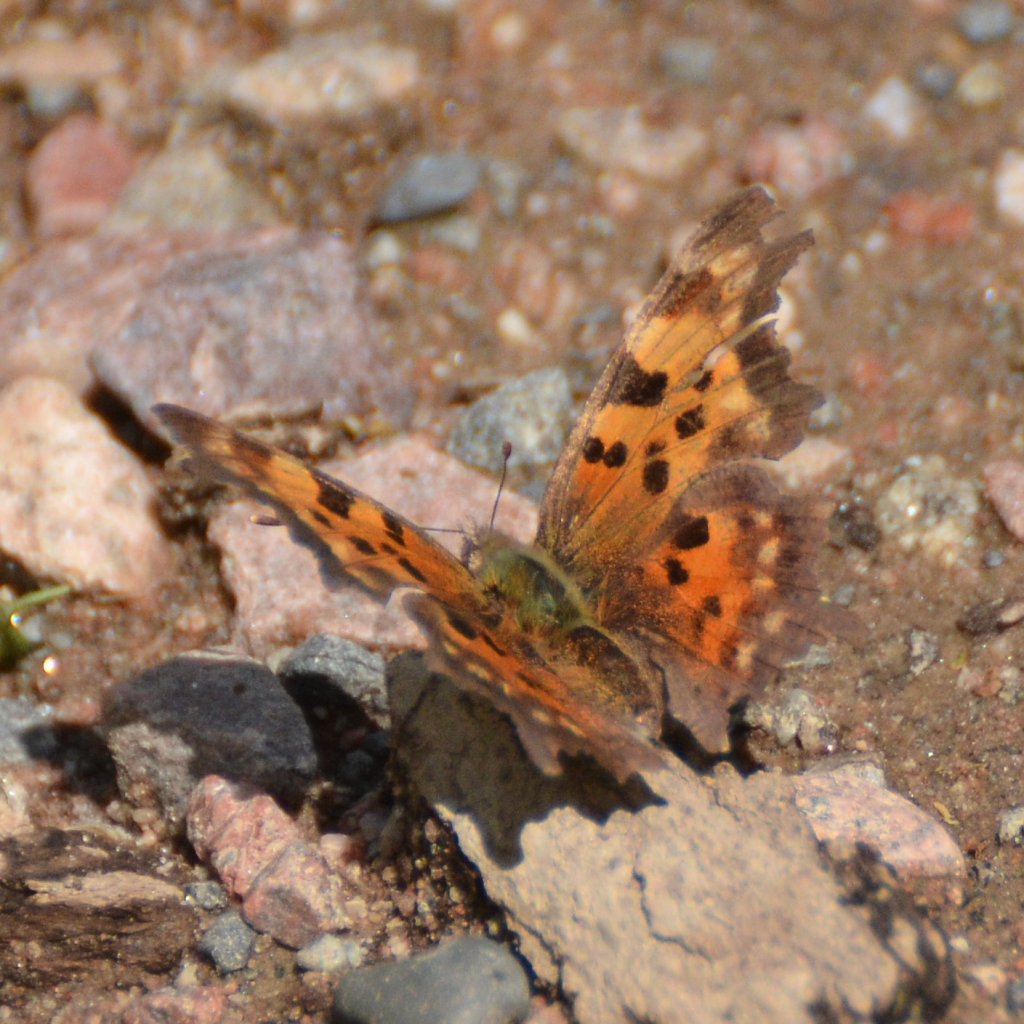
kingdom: Animalia
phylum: Arthropoda
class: Insecta
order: Lepidoptera
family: Nymphalidae
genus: Polygonia
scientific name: Polygonia faunus
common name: Green Comma
